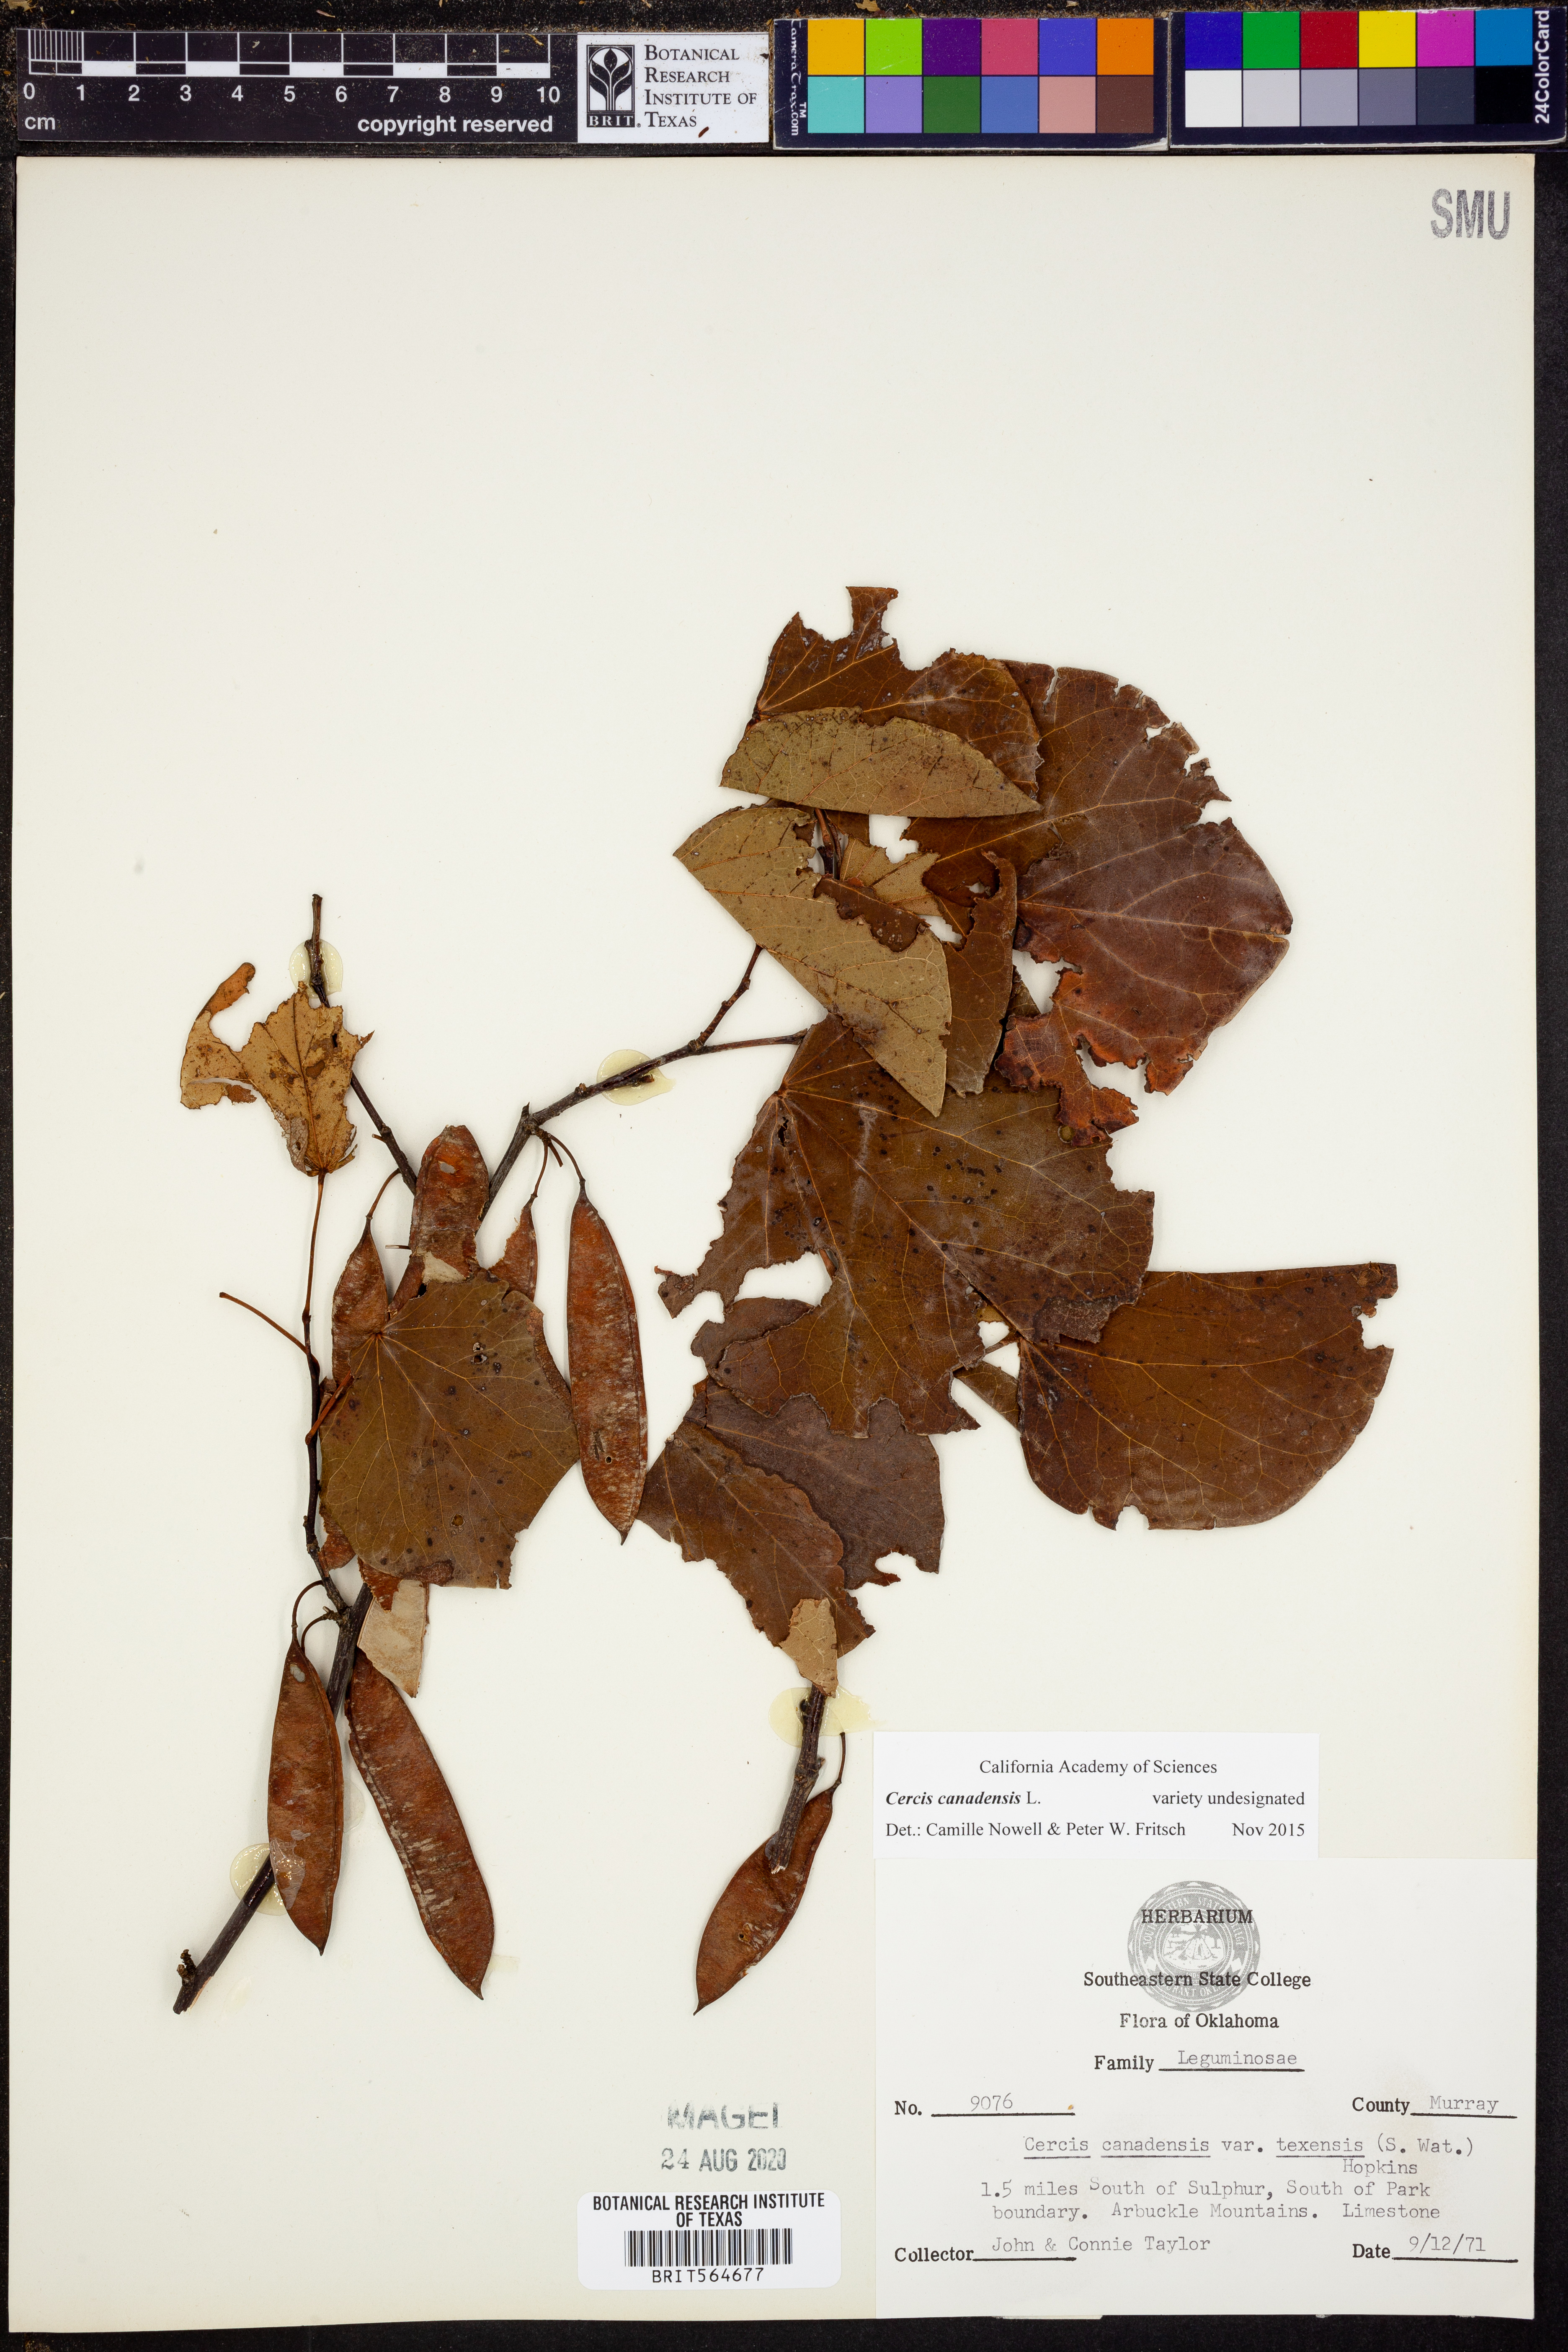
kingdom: Plantae
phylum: Tracheophyta
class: Magnoliopsida
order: Fabales
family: Fabaceae
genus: Cercis
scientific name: Cercis canadensis
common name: Eastern redbud
